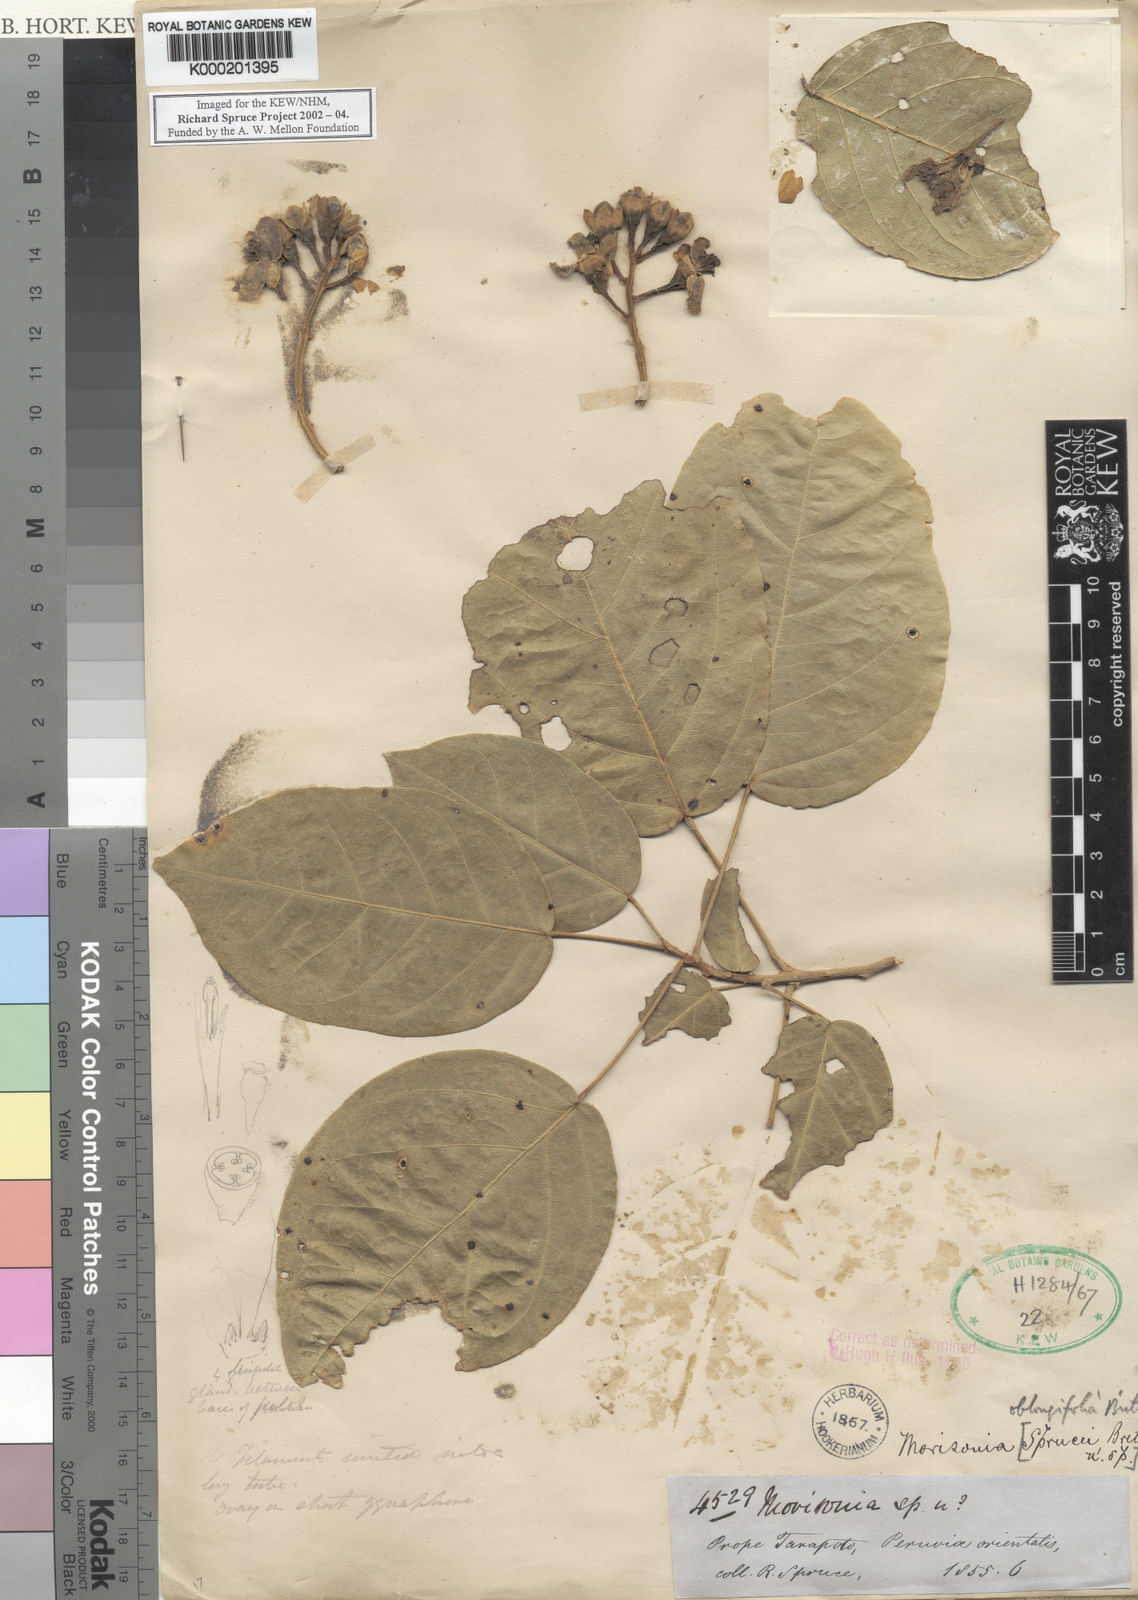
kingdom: Plantae
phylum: Tracheophyta
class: Magnoliopsida
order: Brassicales
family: Capparaceae
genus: Morisonia
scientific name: Morisonia
